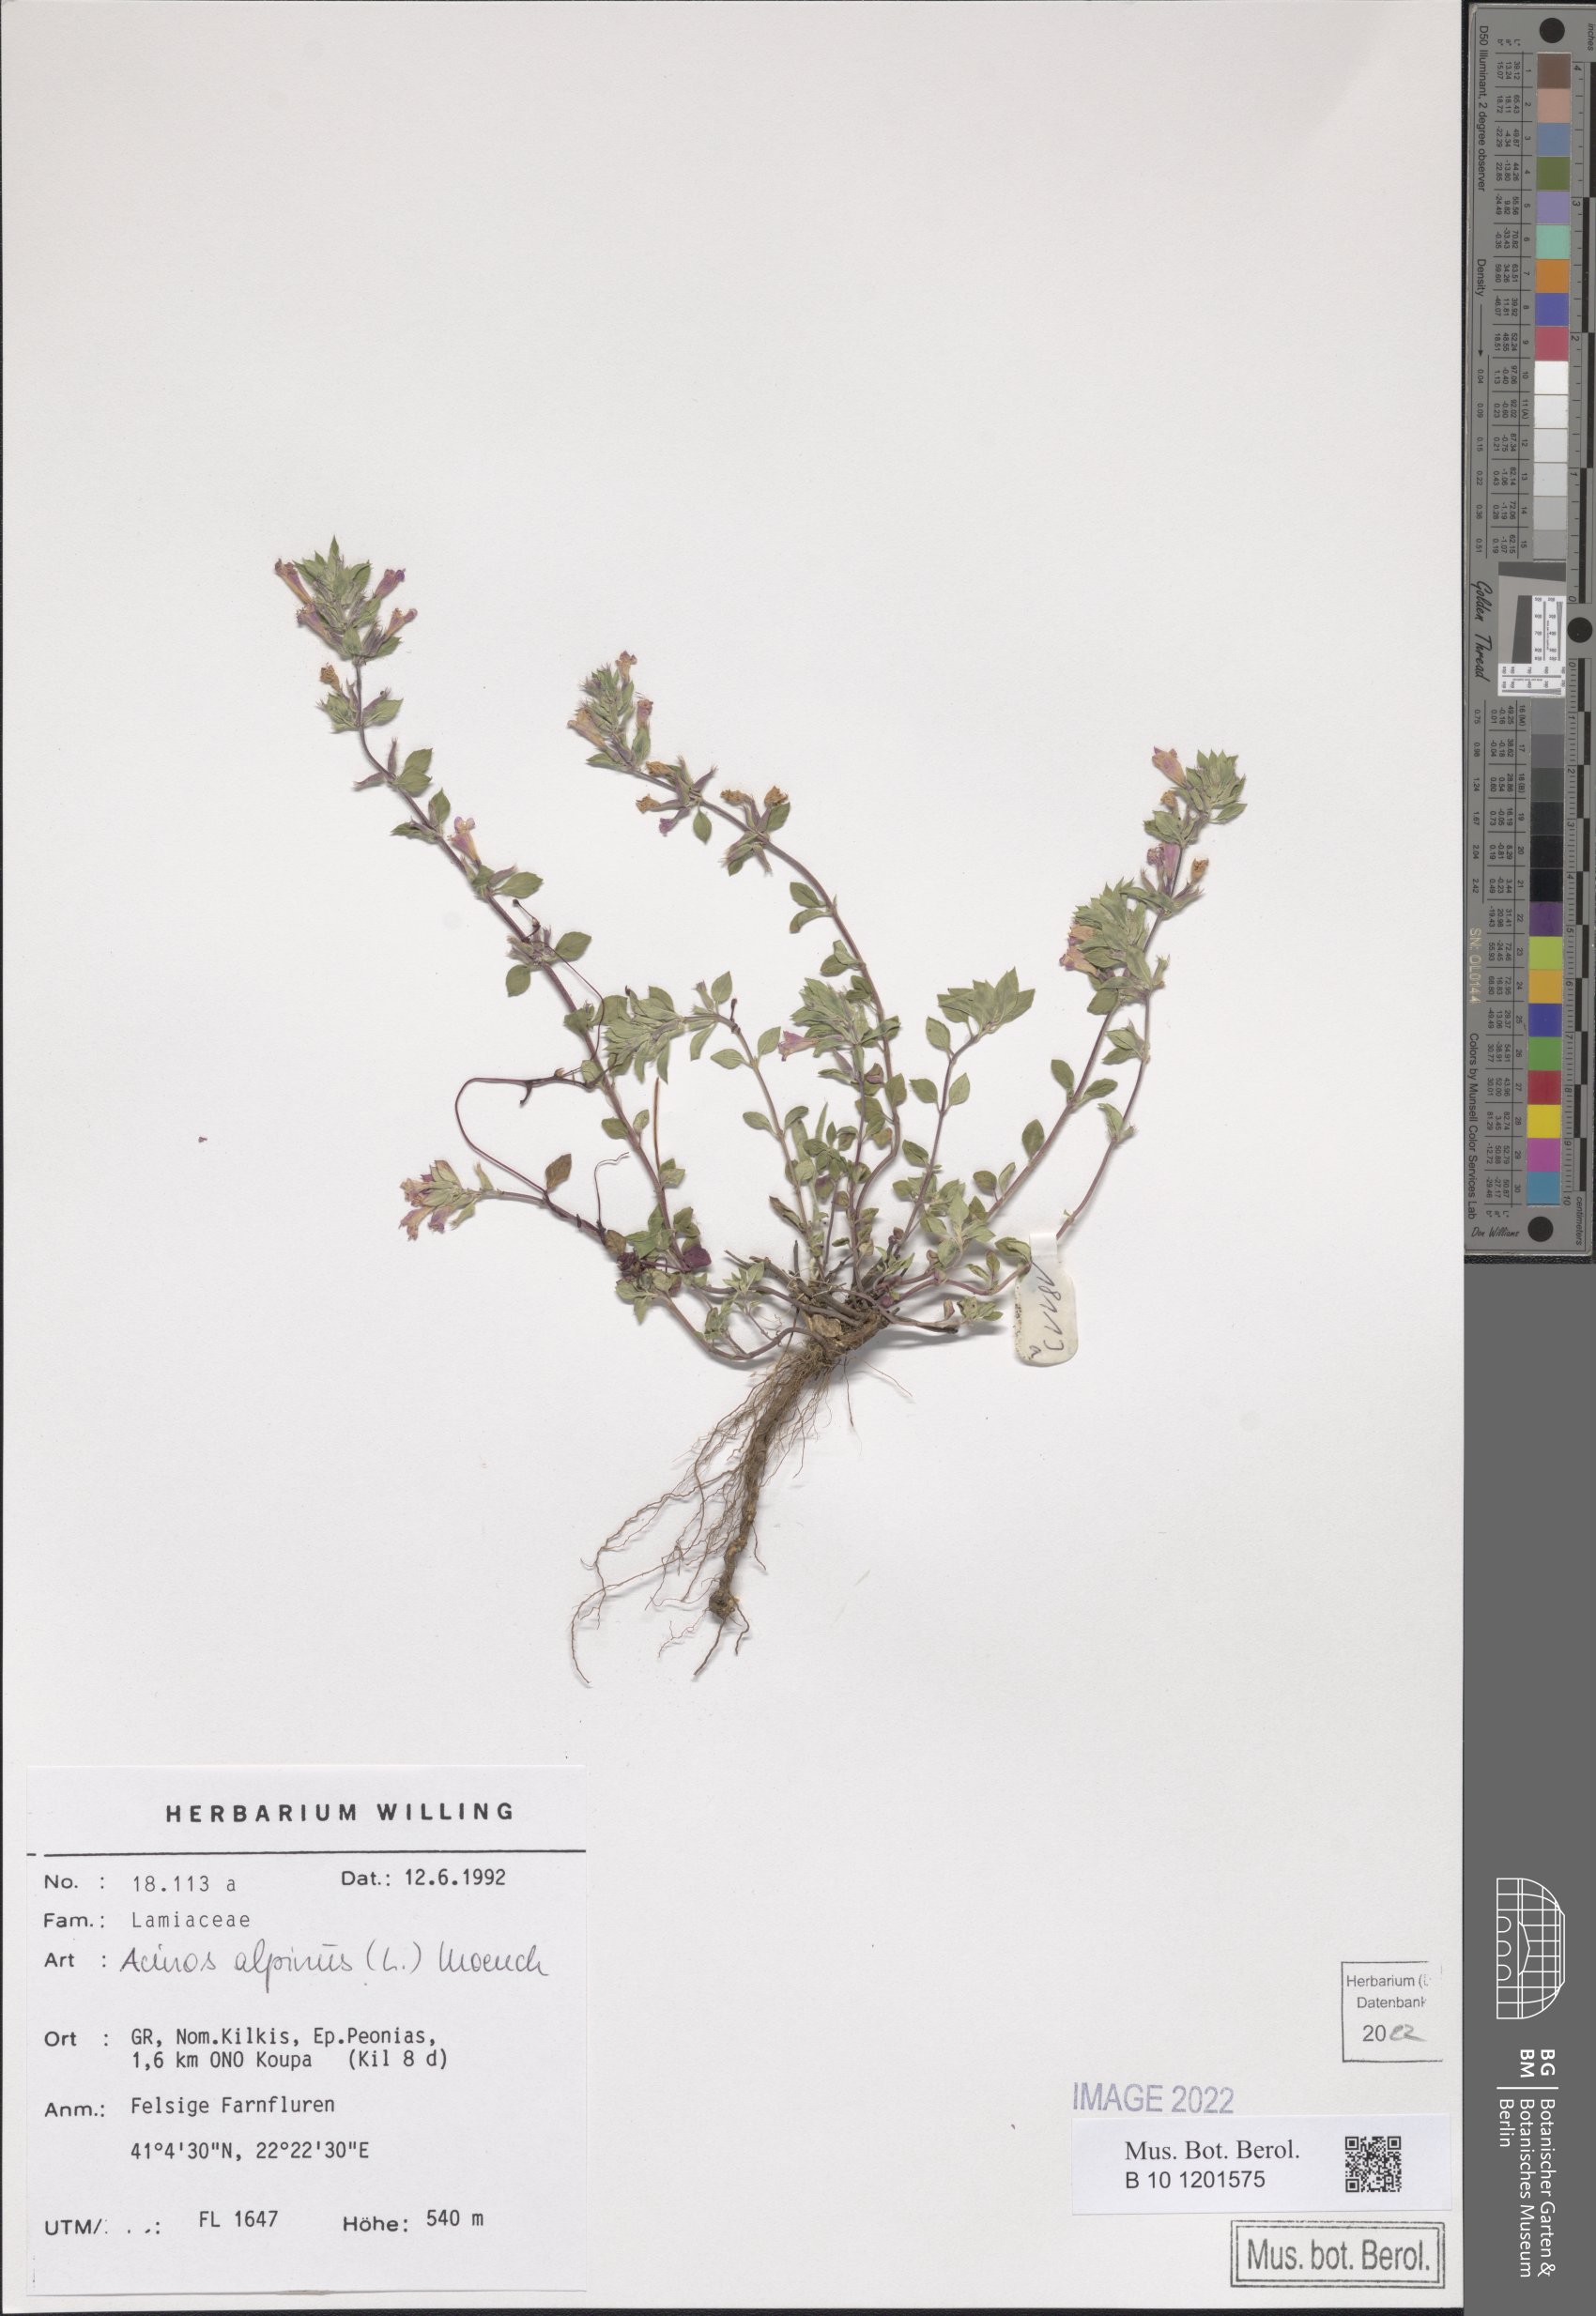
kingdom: Plantae
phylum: Tracheophyta
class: Magnoliopsida
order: Lamiales
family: Lamiaceae
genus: Clinopodium
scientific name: Clinopodium alpinum
